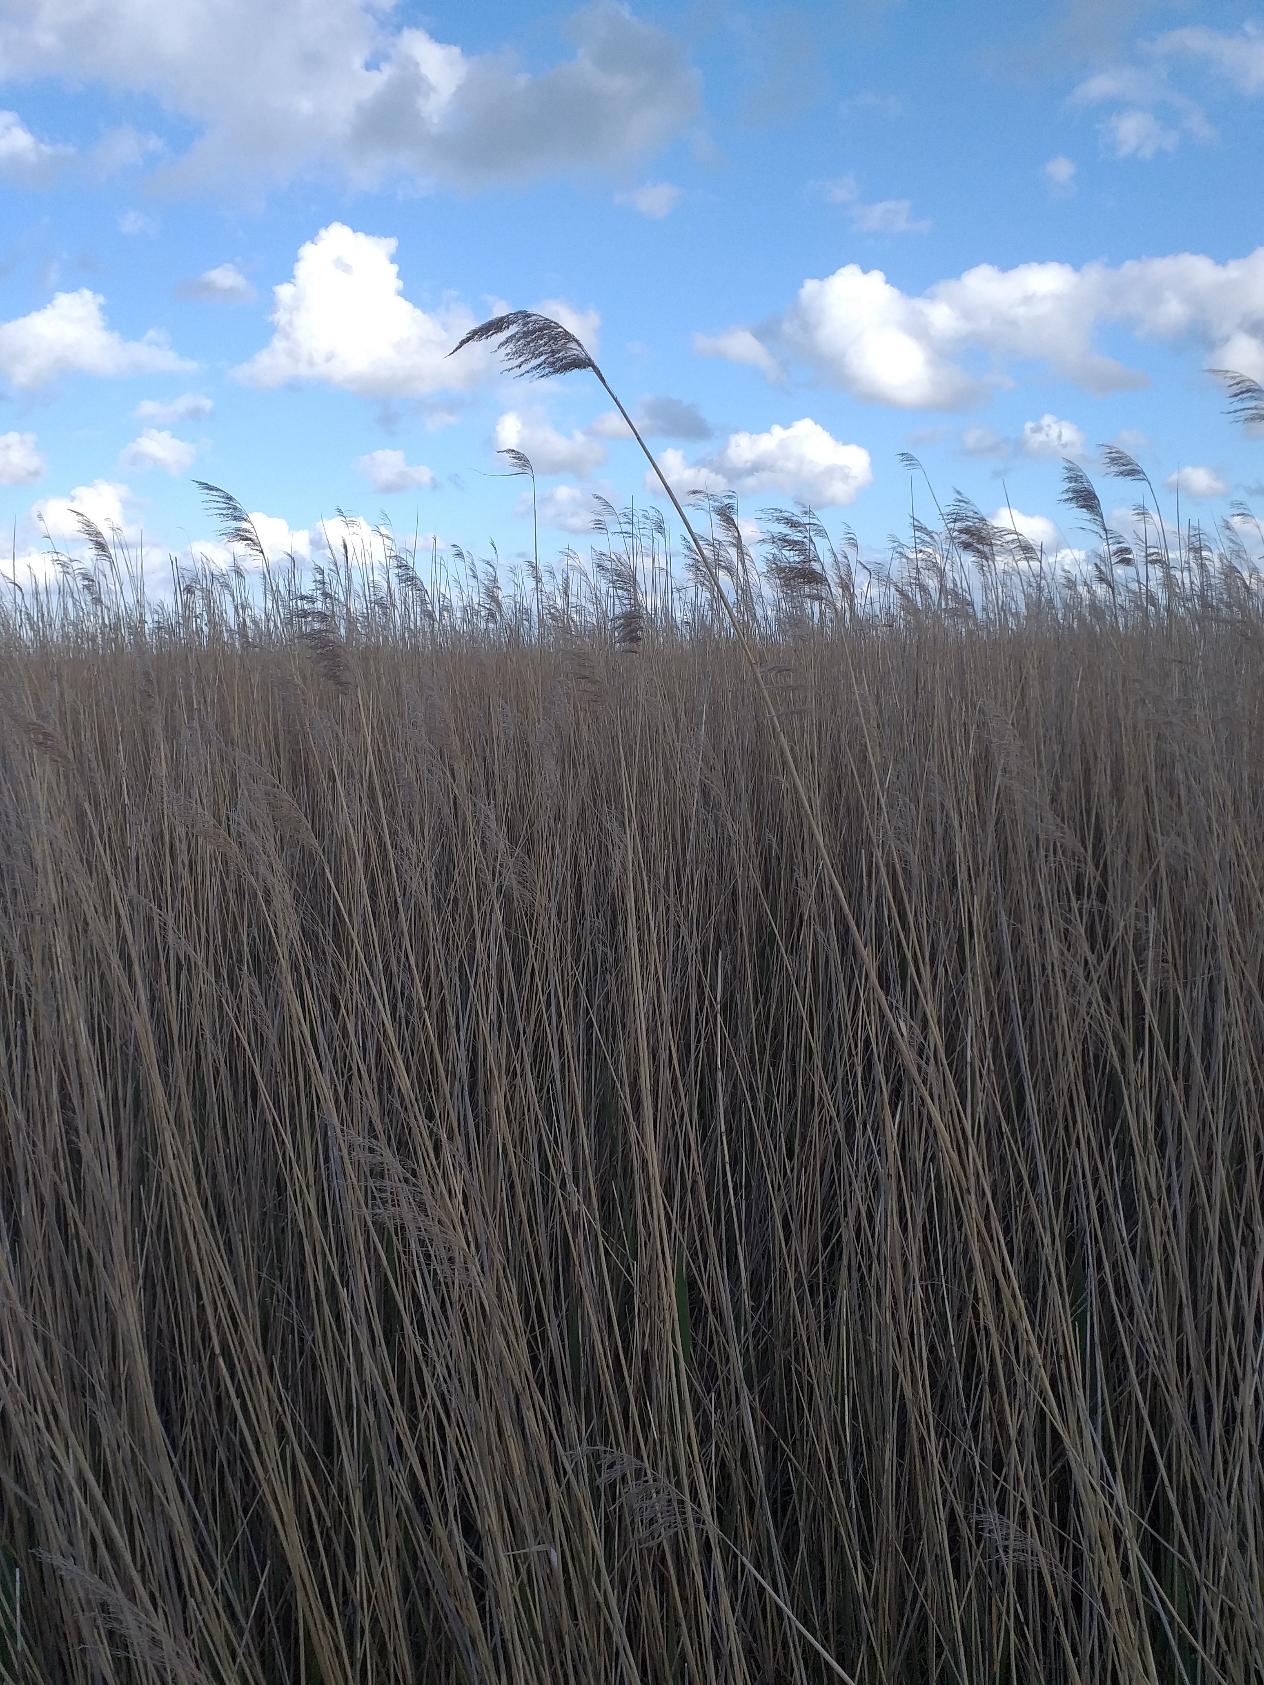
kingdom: Plantae
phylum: Tracheophyta
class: Liliopsida
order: Poales
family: Poaceae
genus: Phragmites
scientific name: Phragmites australis
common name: Tagrør
